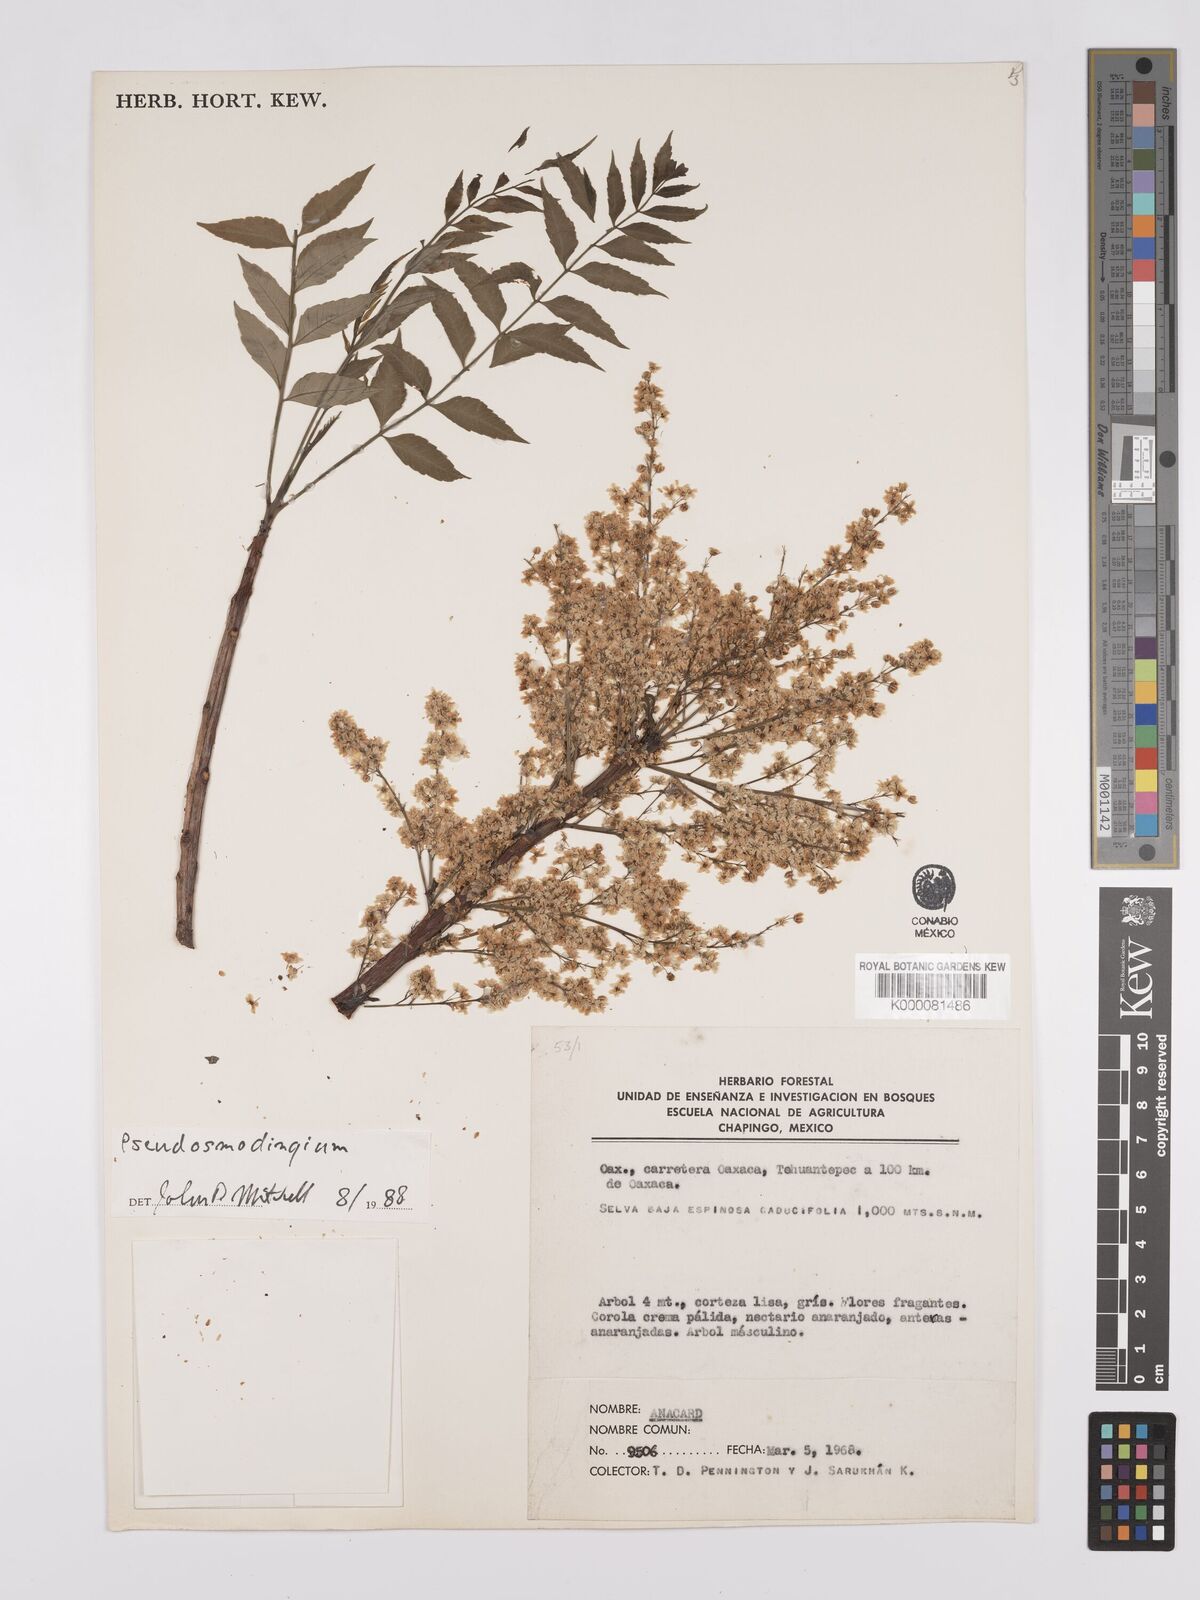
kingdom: Plantae
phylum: Tracheophyta
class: Magnoliopsida
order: Sapindales
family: Anacardiaceae
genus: Pseudosmodingium
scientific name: Pseudosmodingium
